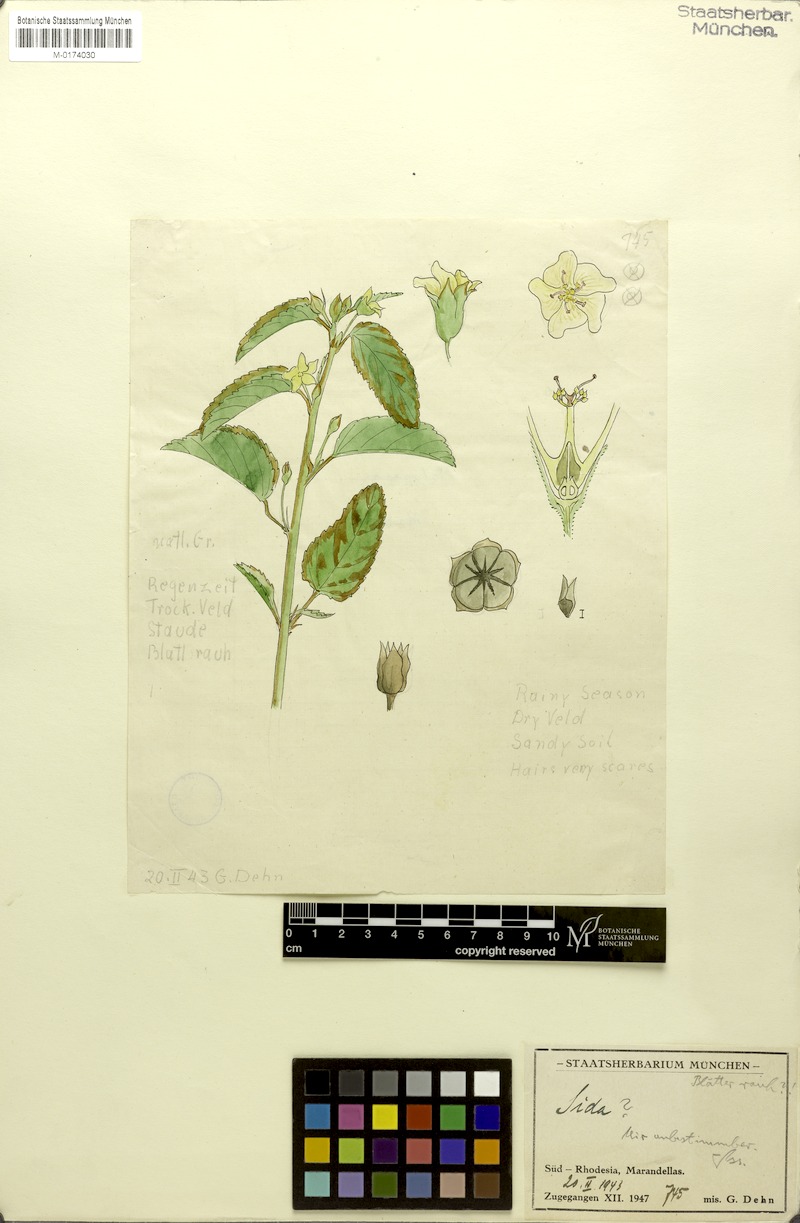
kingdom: Plantae
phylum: Tracheophyta
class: Magnoliopsida
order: Malvales
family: Malvaceae
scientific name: Malvaceae
